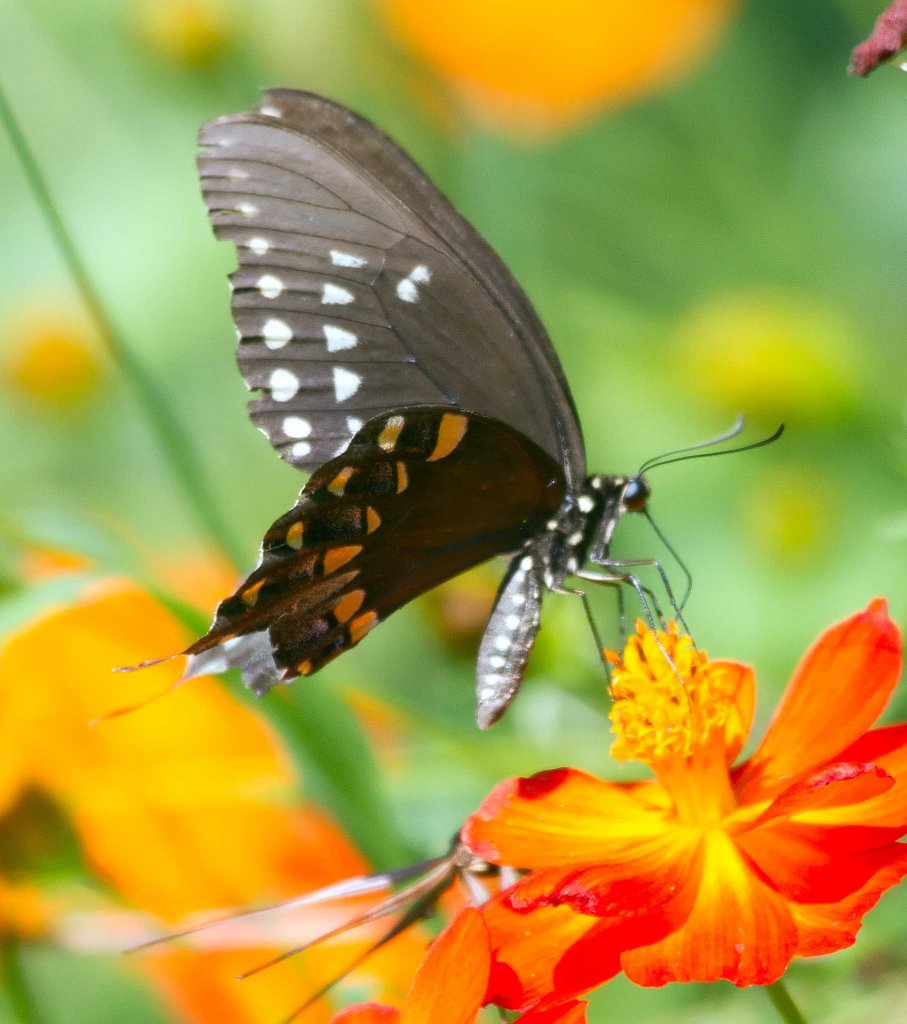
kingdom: Animalia
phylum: Arthropoda
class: Insecta
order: Lepidoptera
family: Papilionidae
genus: Pterourus
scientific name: Pterourus troilus
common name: Spicebush Swallowtail
